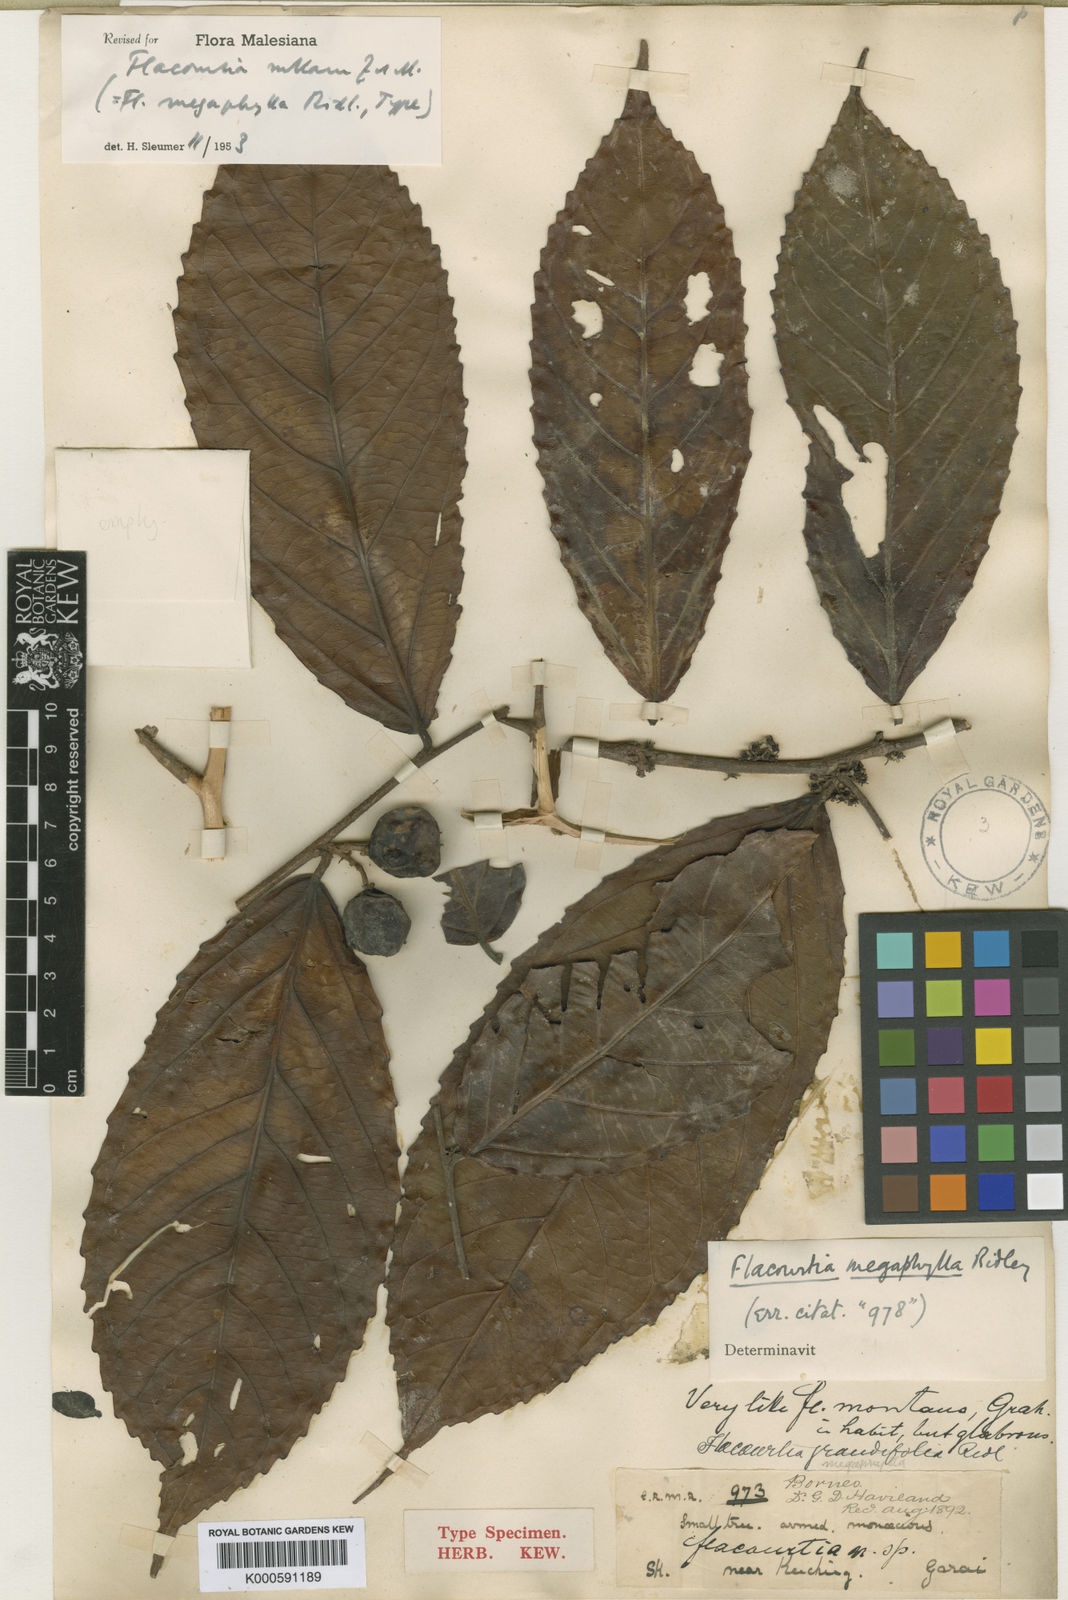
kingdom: Plantae
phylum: Tracheophyta
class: Magnoliopsida
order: Malpighiales
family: Salicaceae
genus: Flacourtia
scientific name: Flacourtia rukam
